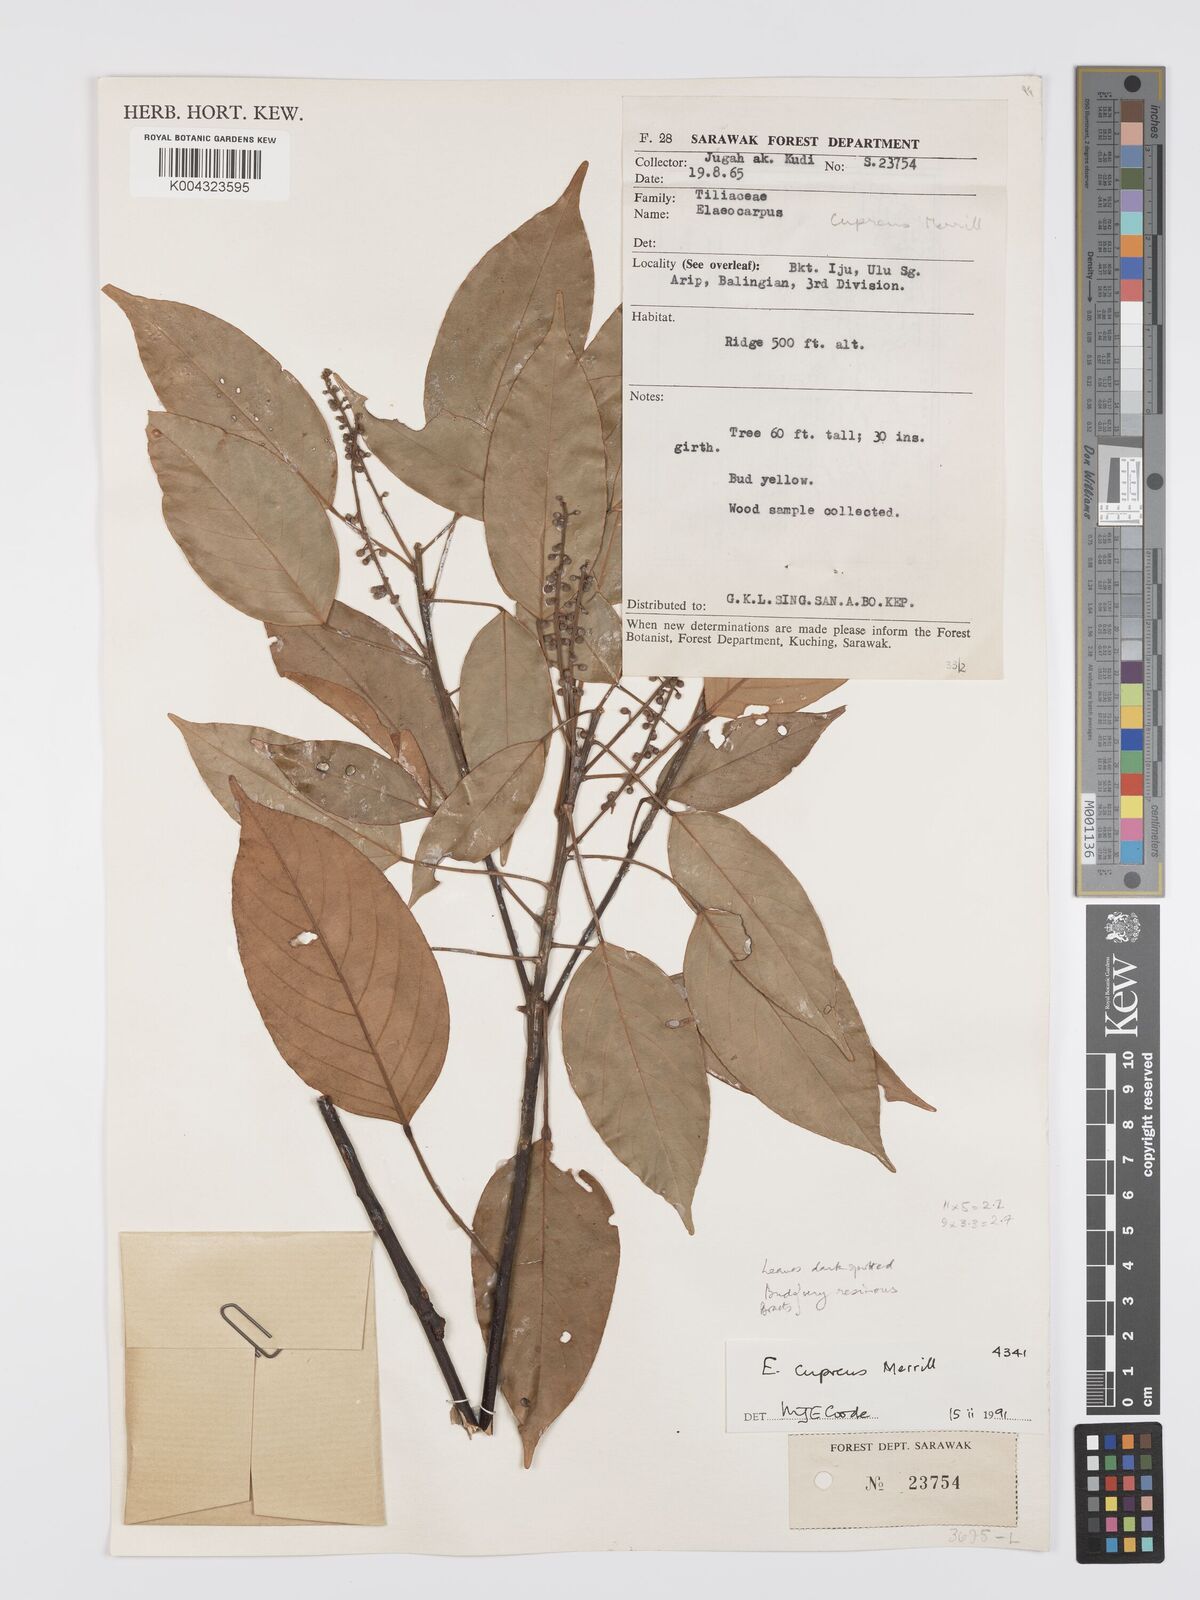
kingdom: Plantae
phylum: Tracheophyta
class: Magnoliopsida
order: Oxalidales
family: Elaeocarpaceae
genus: Elaeocarpus
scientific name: Elaeocarpus cupreus
